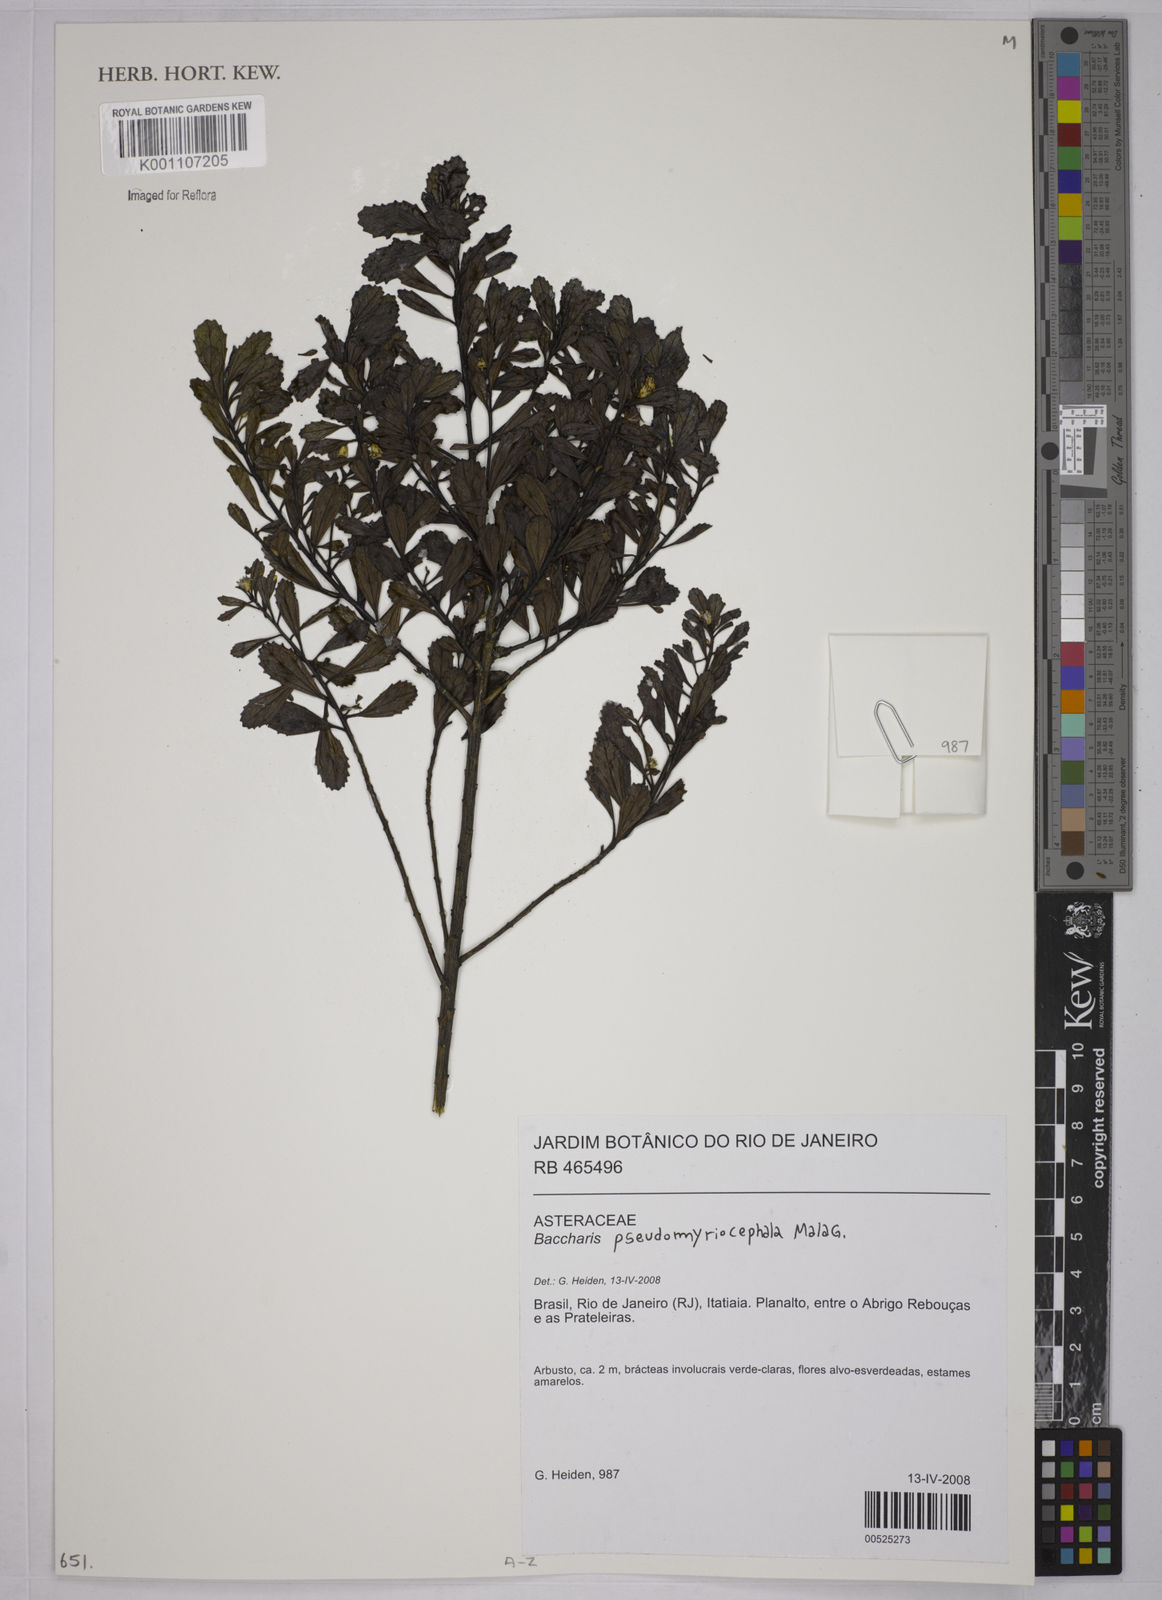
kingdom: Plantae
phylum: Tracheophyta
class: Magnoliopsida
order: Asterales
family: Asteraceae
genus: Baccharis
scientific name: Baccharis pseudomyriocephala
